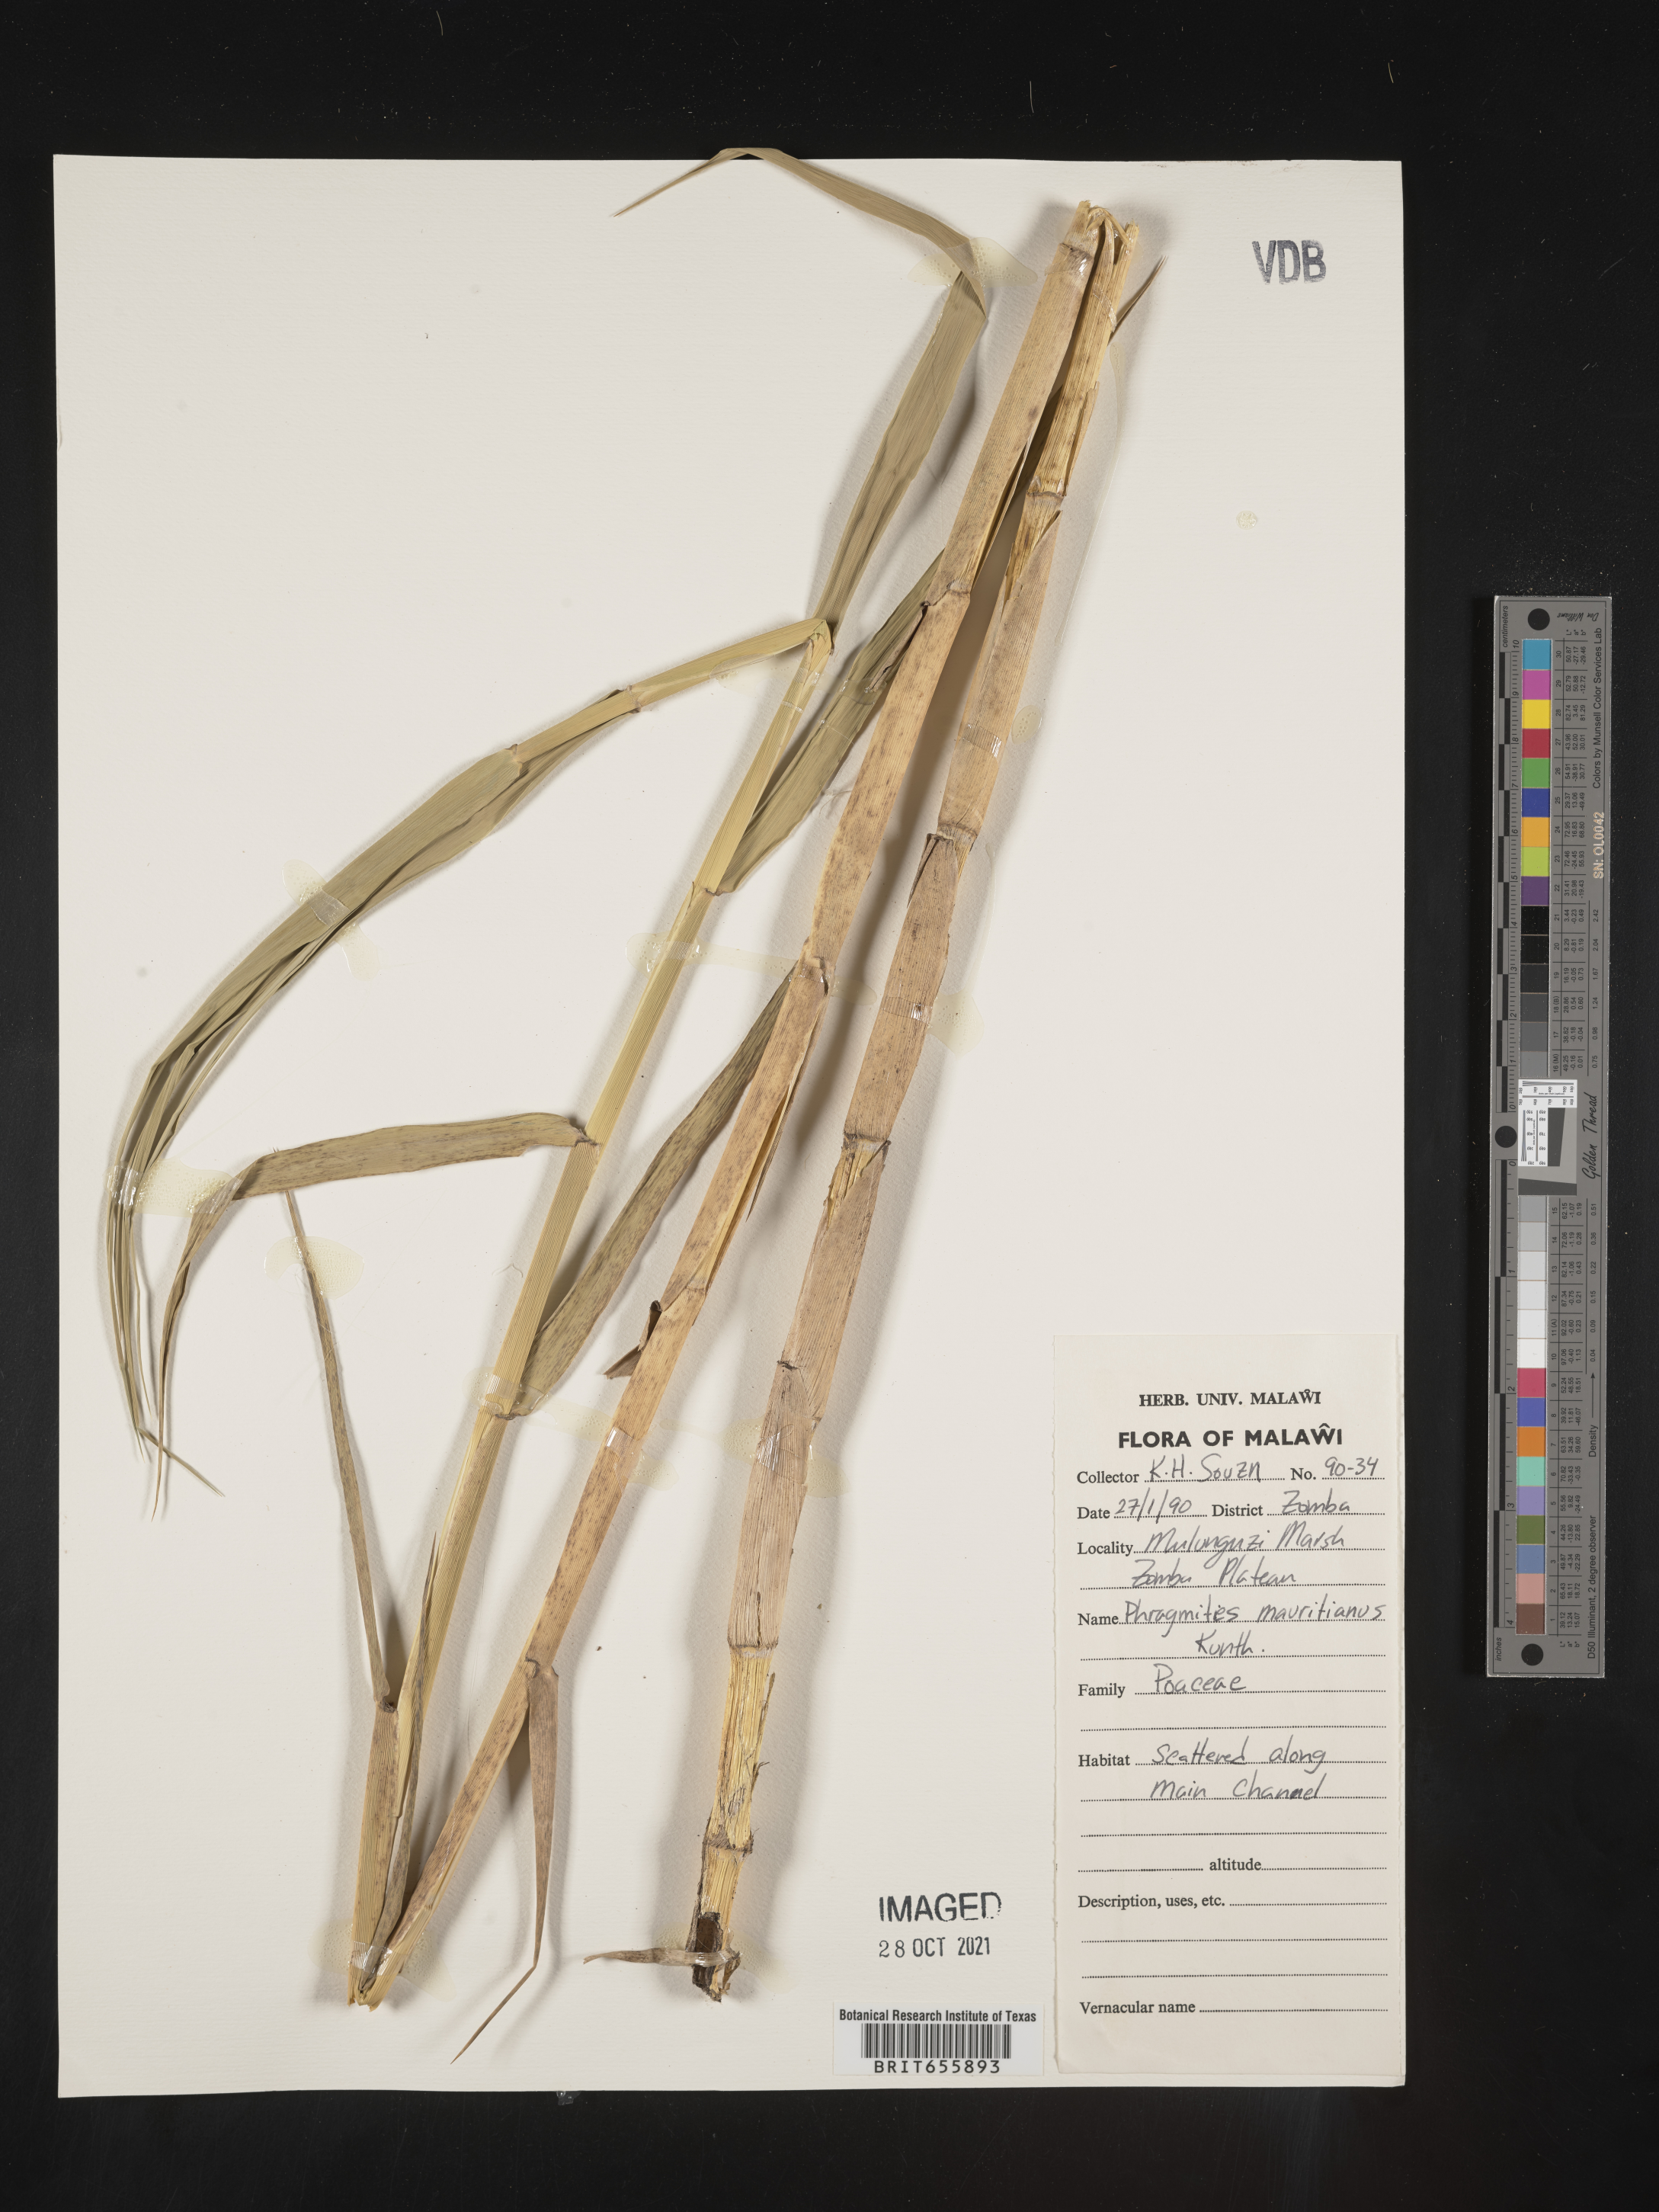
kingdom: Plantae
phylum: Tracheophyta
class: Liliopsida
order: Poales
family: Poaceae
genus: Phragmites
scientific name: Phragmites
